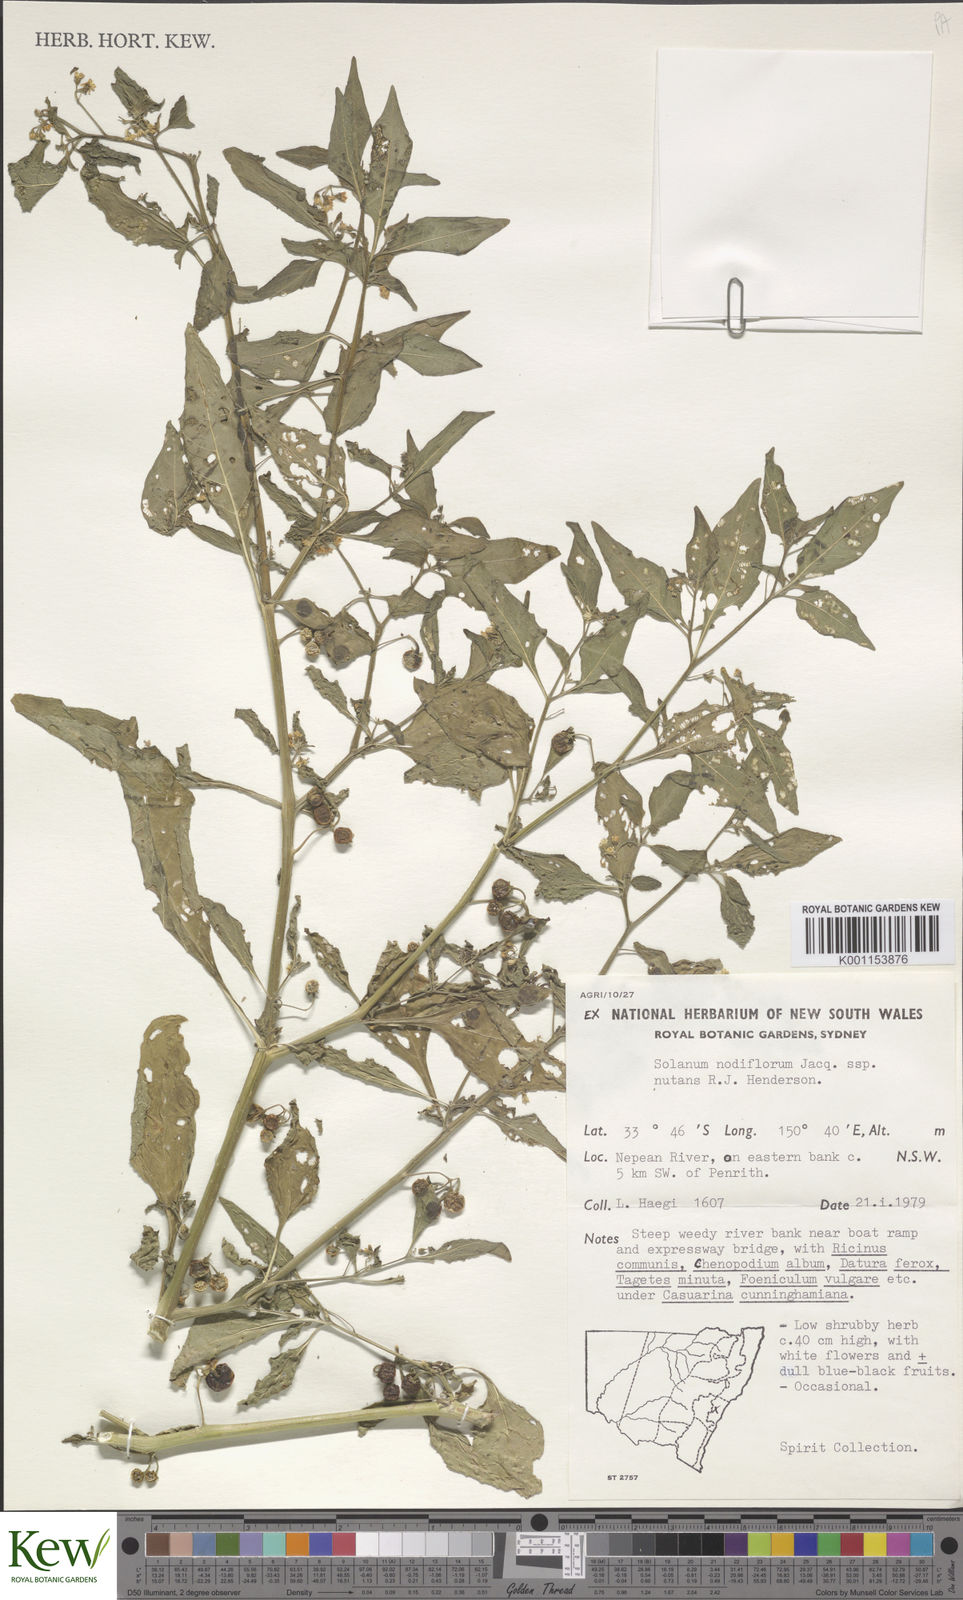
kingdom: Plantae
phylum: Tracheophyta
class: Magnoliopsida
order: Solanales
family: Solanaceae
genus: Solanum
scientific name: Solanum americanum
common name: American black nightshade
